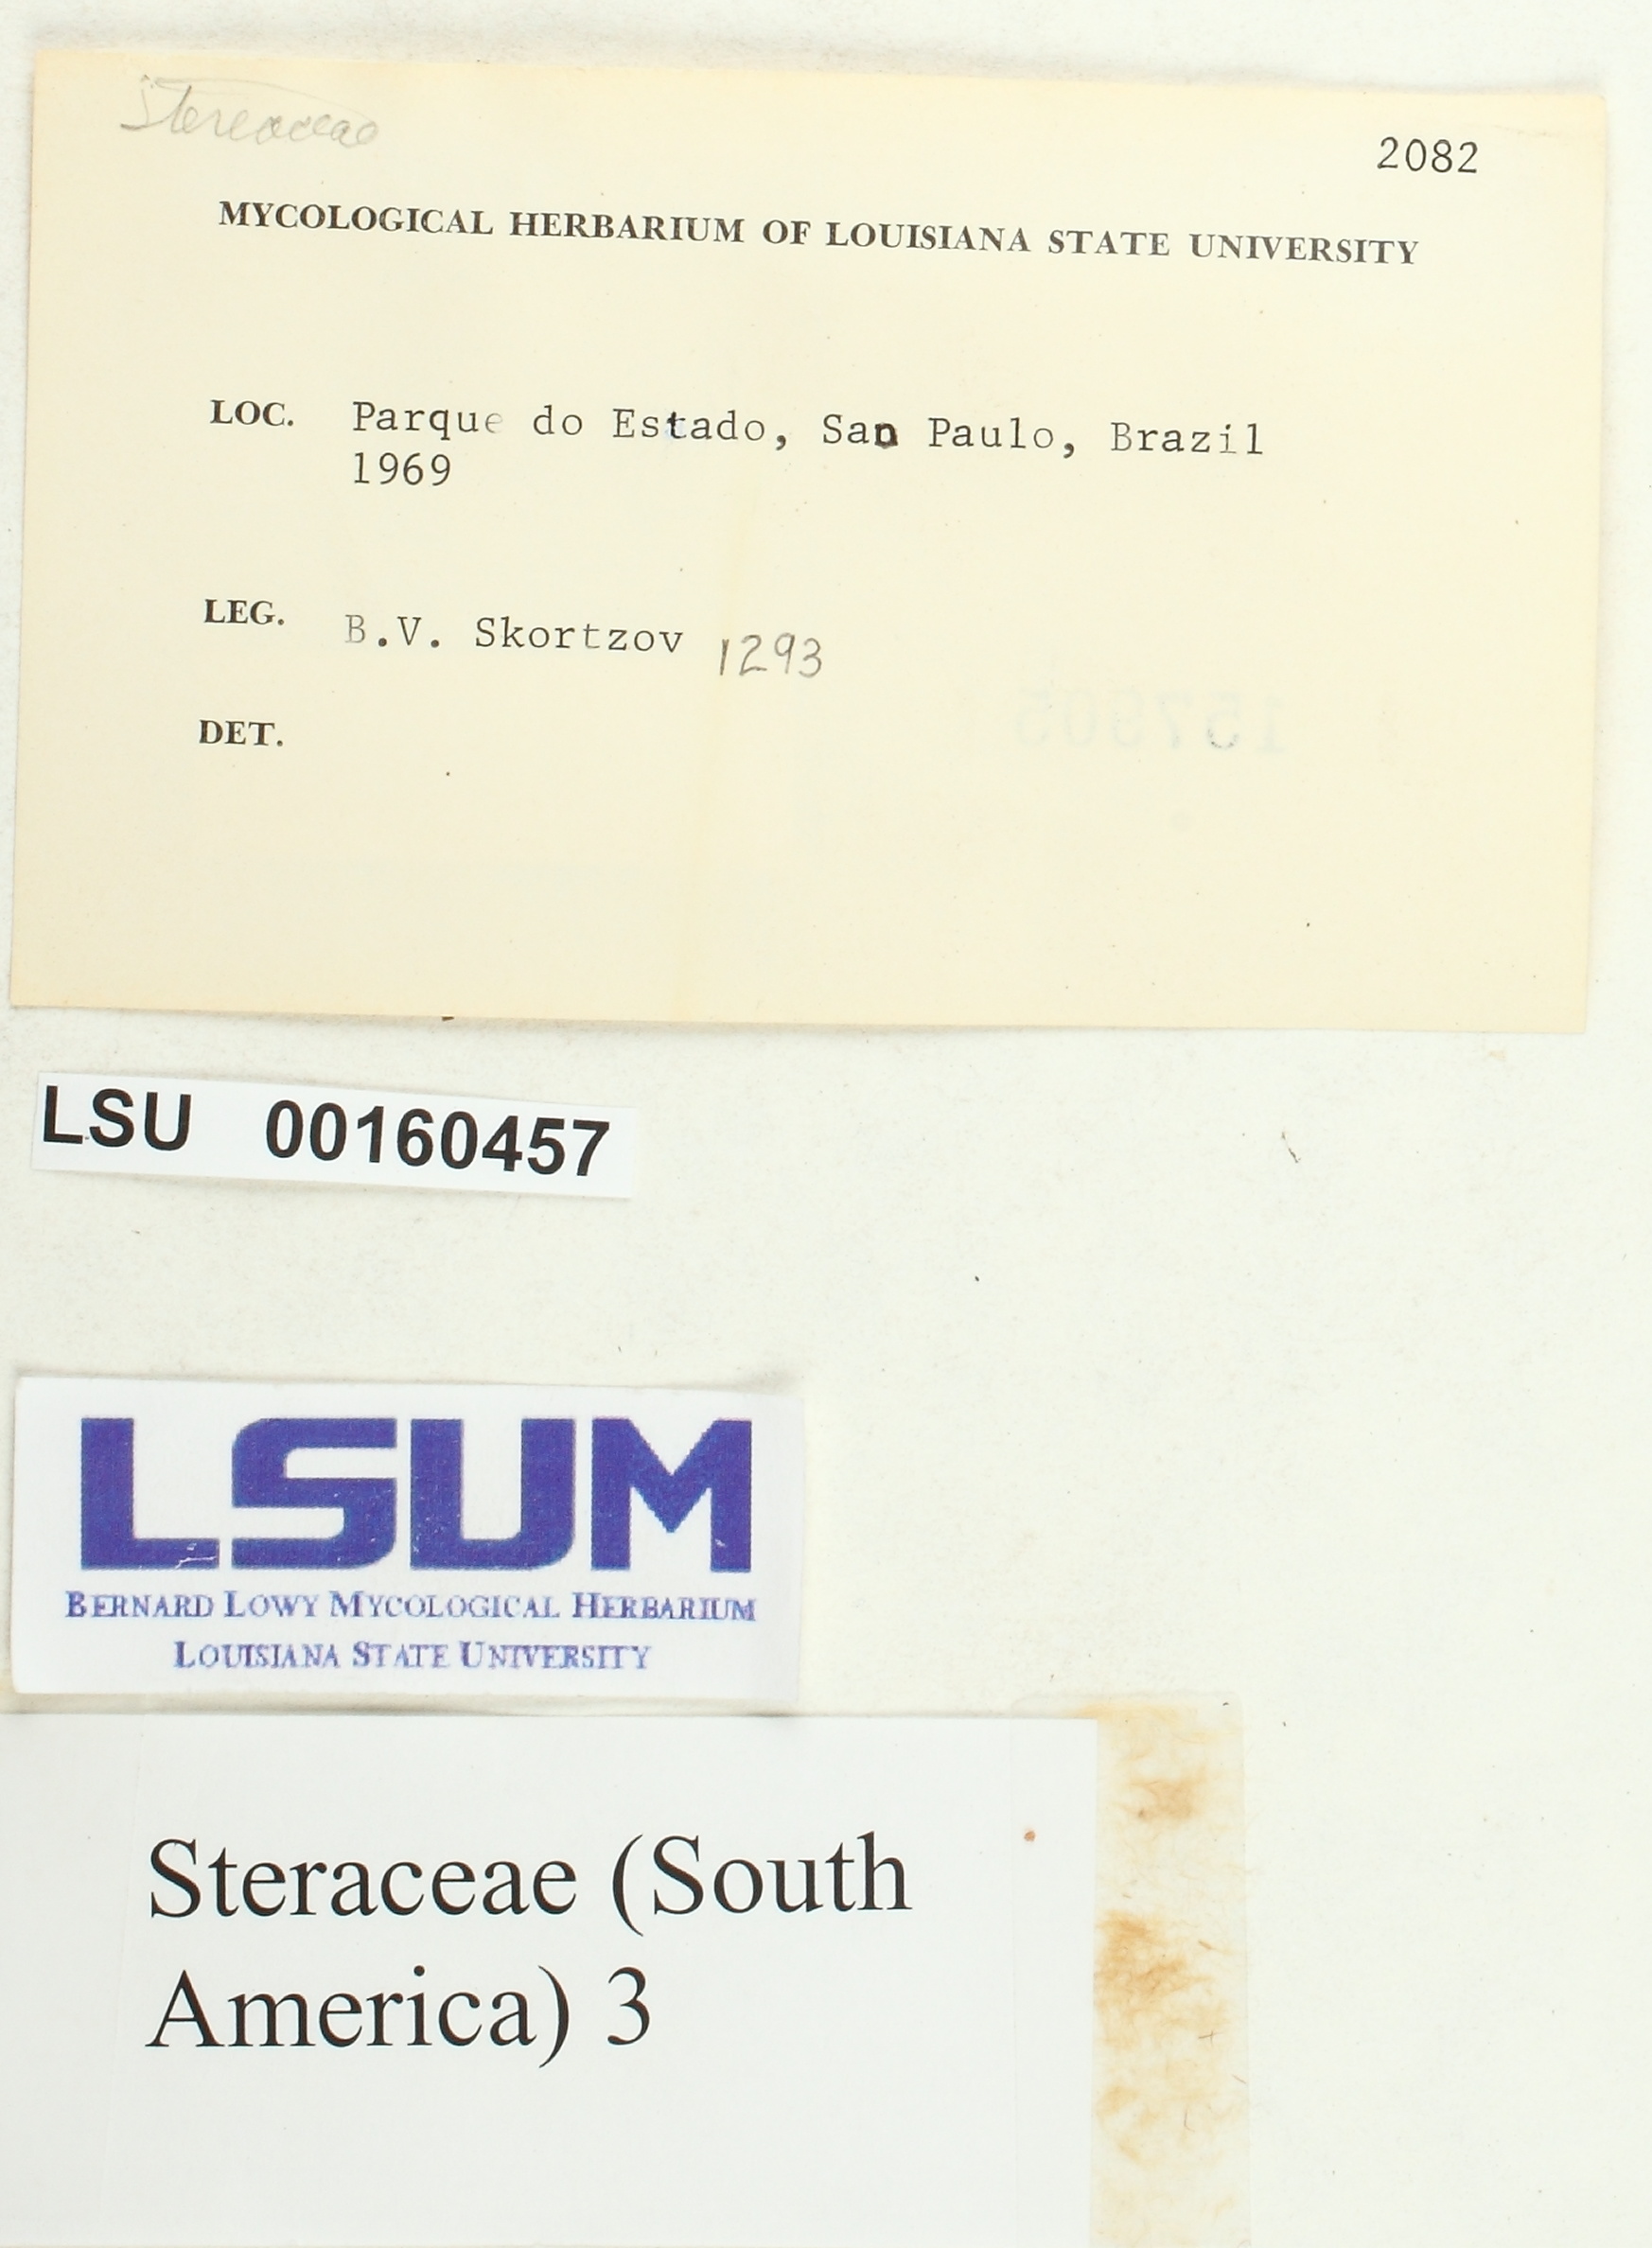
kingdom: Fungi
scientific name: Fungi
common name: Fungi
